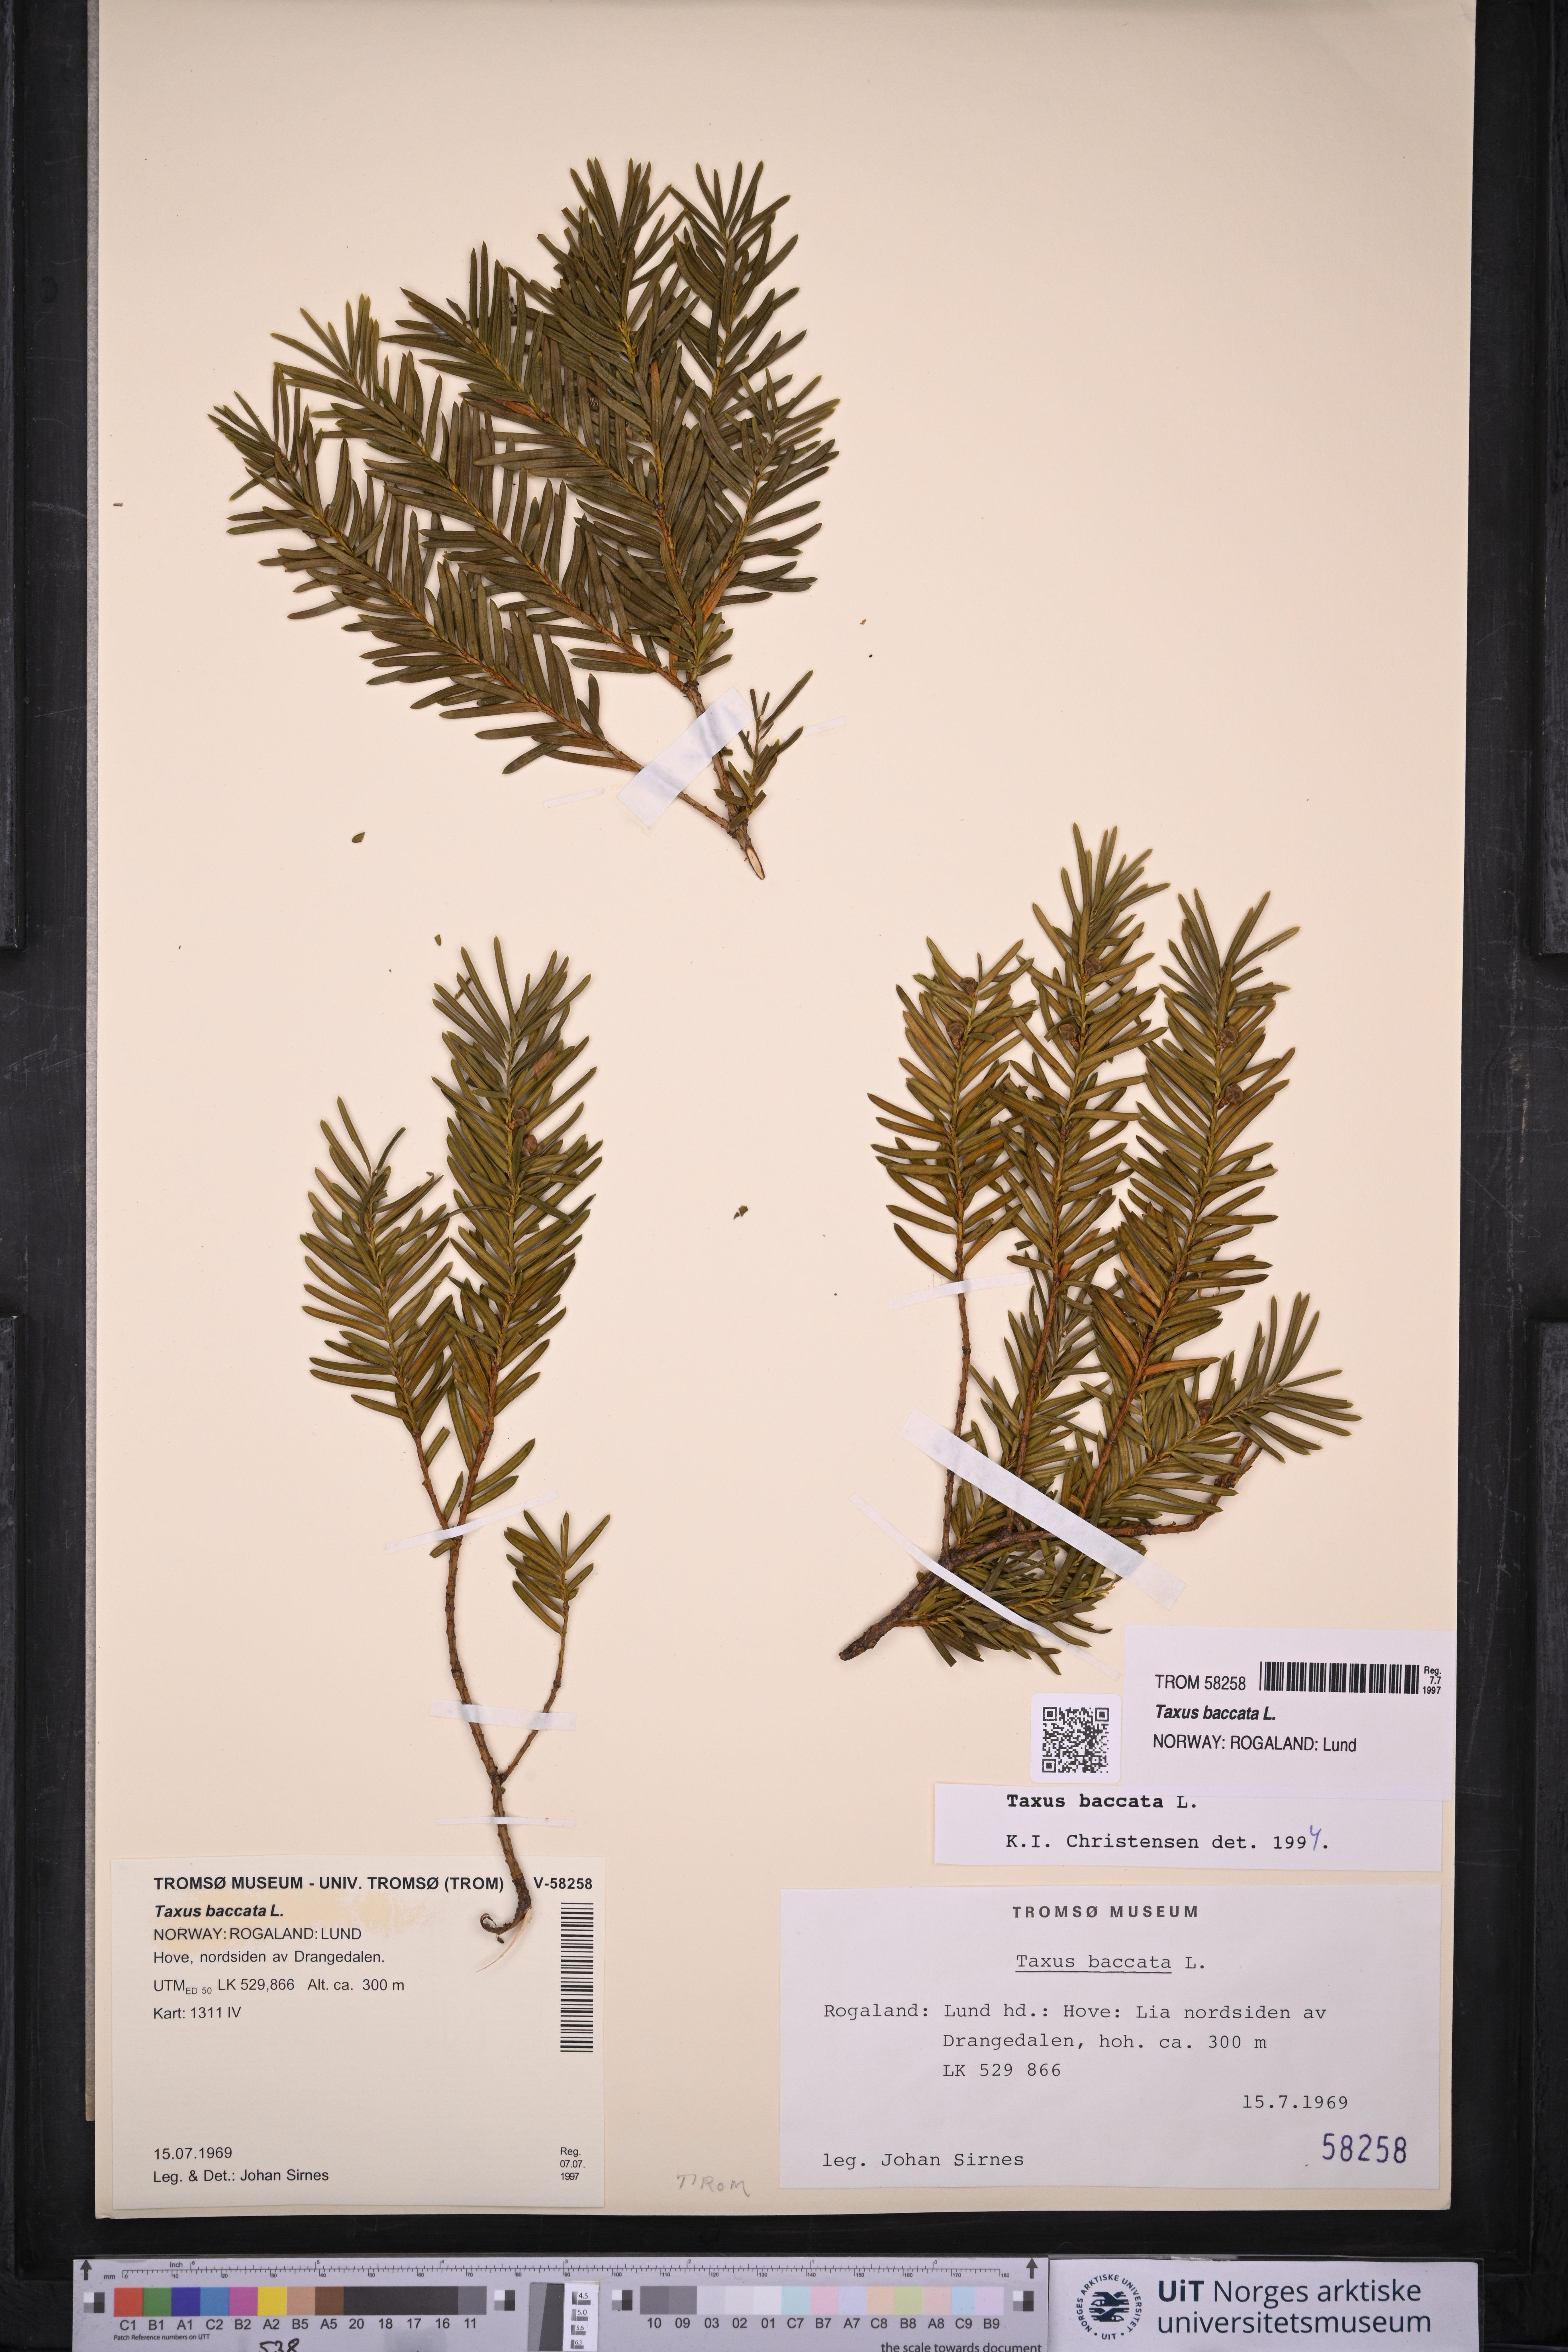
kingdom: Plantae
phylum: Tracheophyta
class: Pinopsida
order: Pinales
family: Taxaceae
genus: Taxus
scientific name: Taxus baccata
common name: Yew
